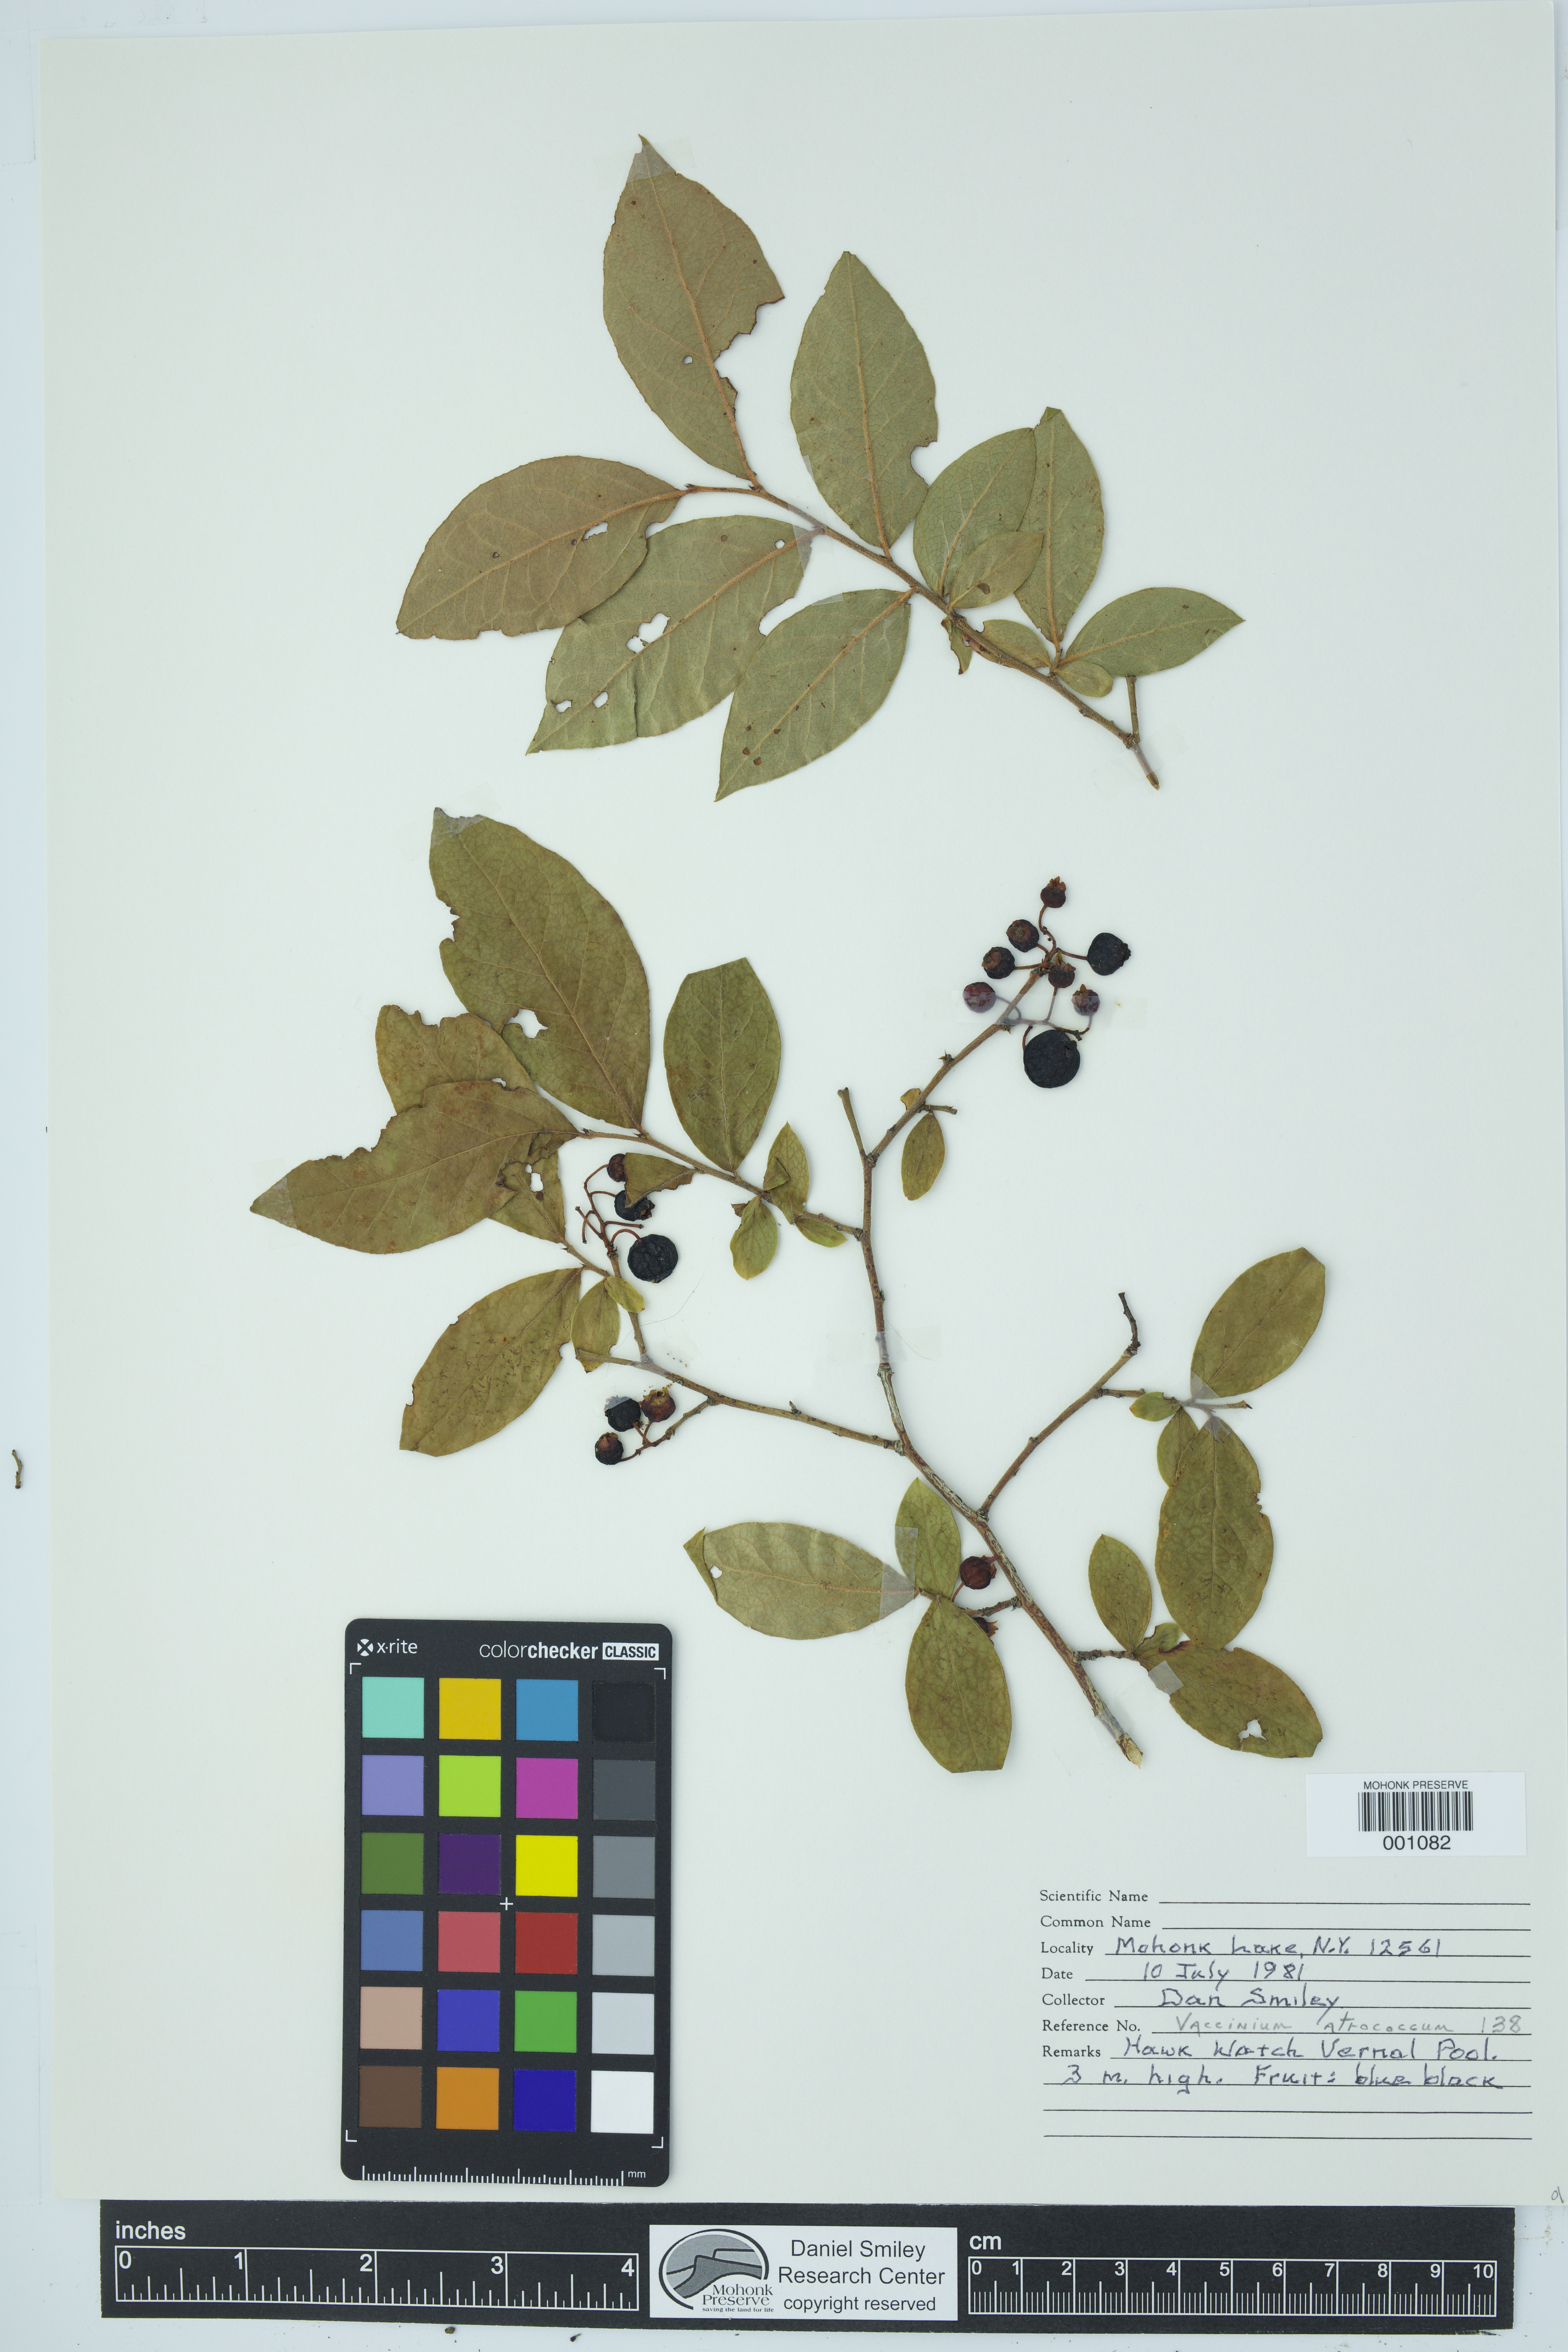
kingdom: Plantae
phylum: Tracheophyta
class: Magnoliopsida
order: Ericales
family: Ericaceae
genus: Vaccinium
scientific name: Vaccinium corymbosum
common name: Blueberry
